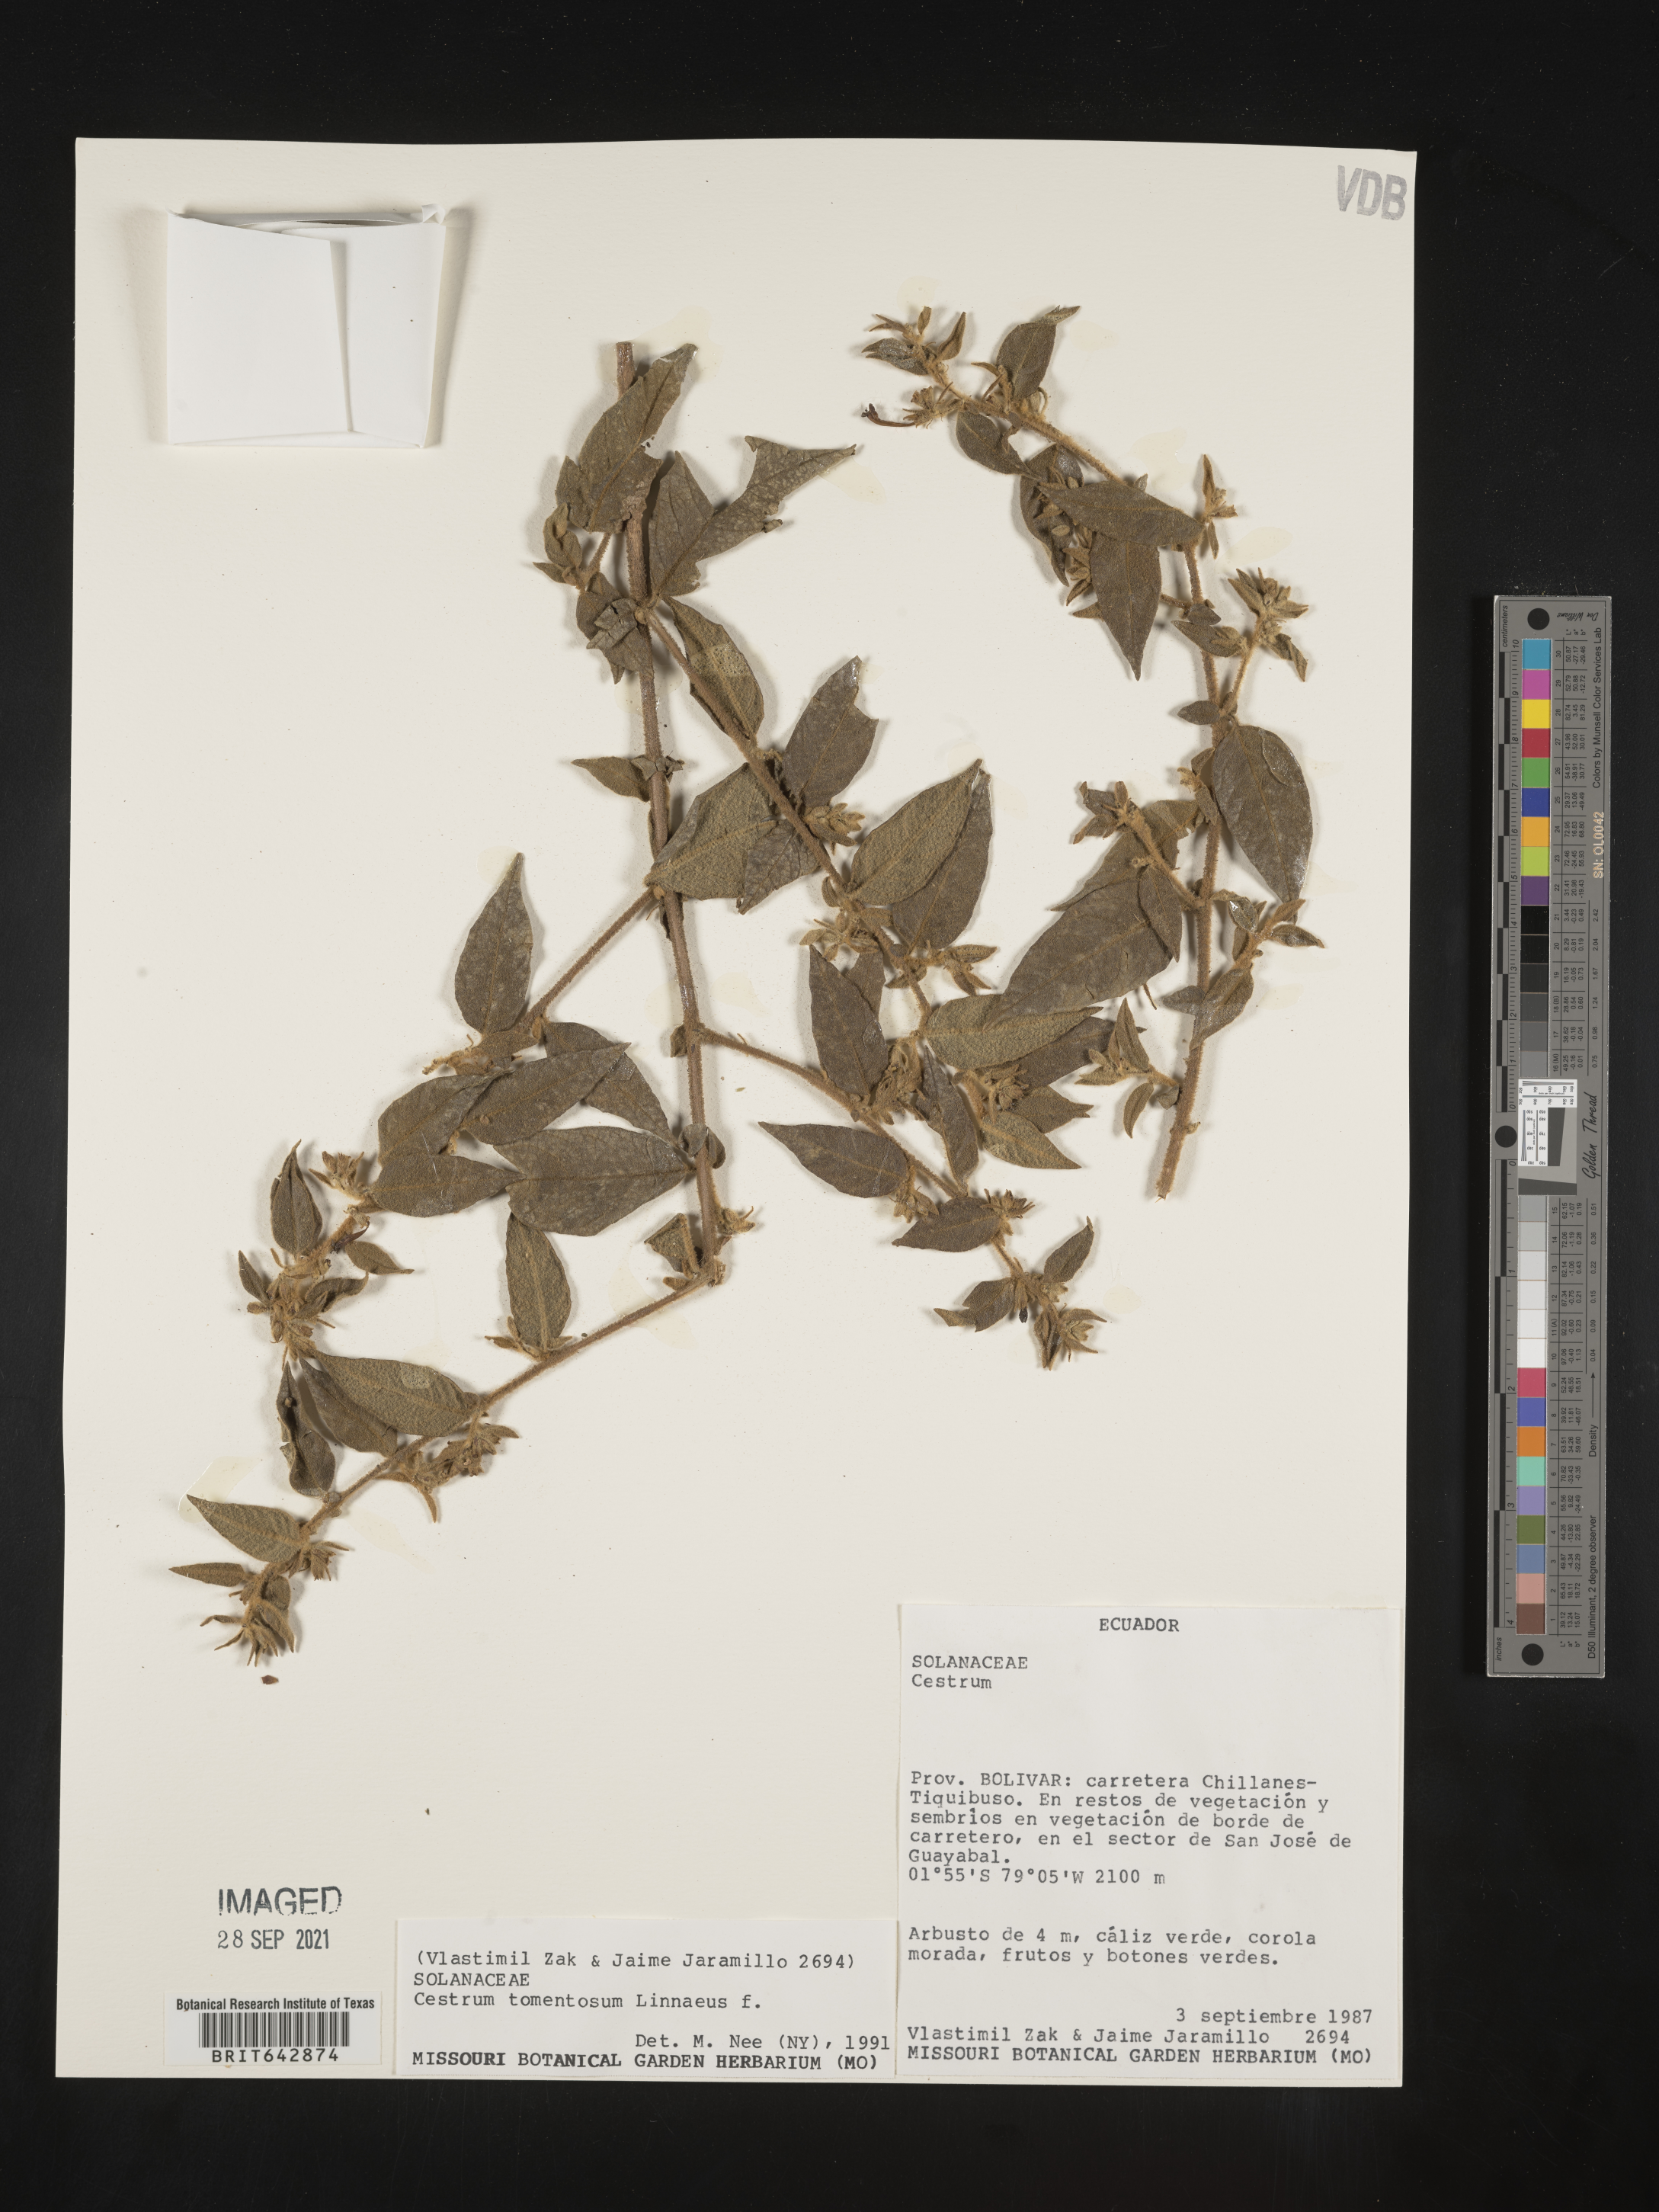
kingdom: Plantae
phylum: Tracheophyta
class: Magnoliopsida
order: Solanales
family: Solanaceae
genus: Cestrum
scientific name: Cestrum
